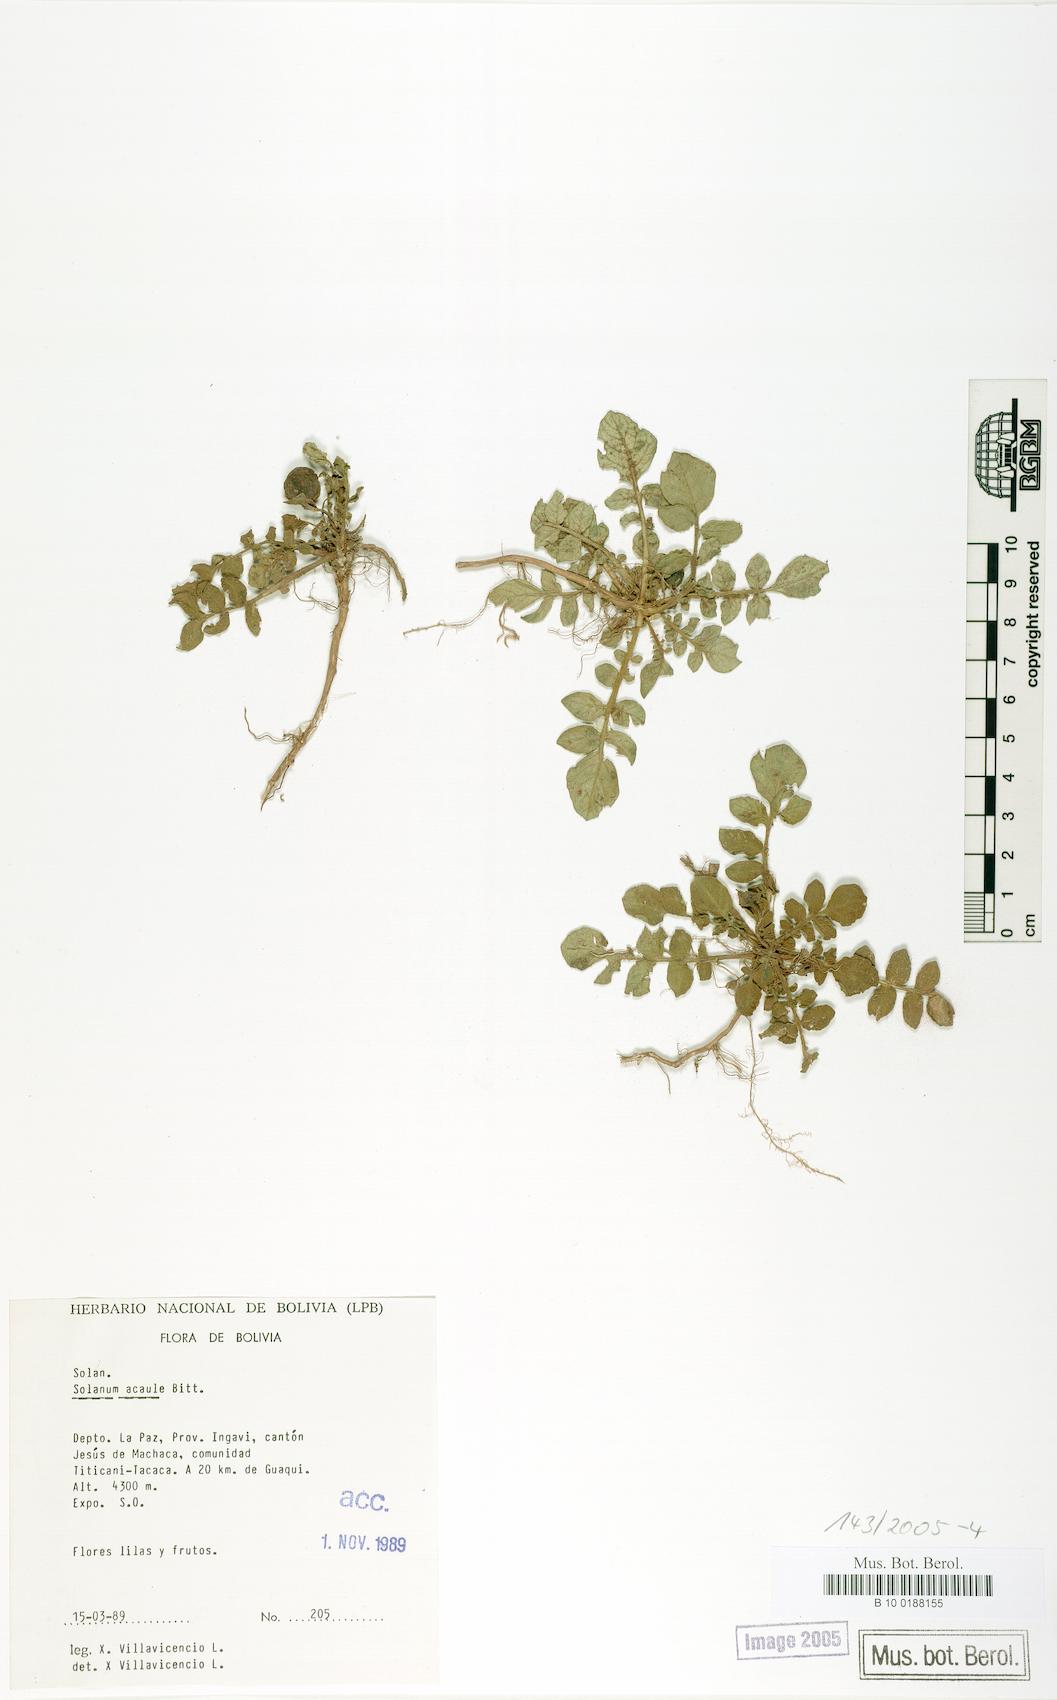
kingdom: Plantae
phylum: Tracheophyta
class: Magnoliopsida
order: Solanales
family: Solanaceae
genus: Solanum
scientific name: Solanum acaule
